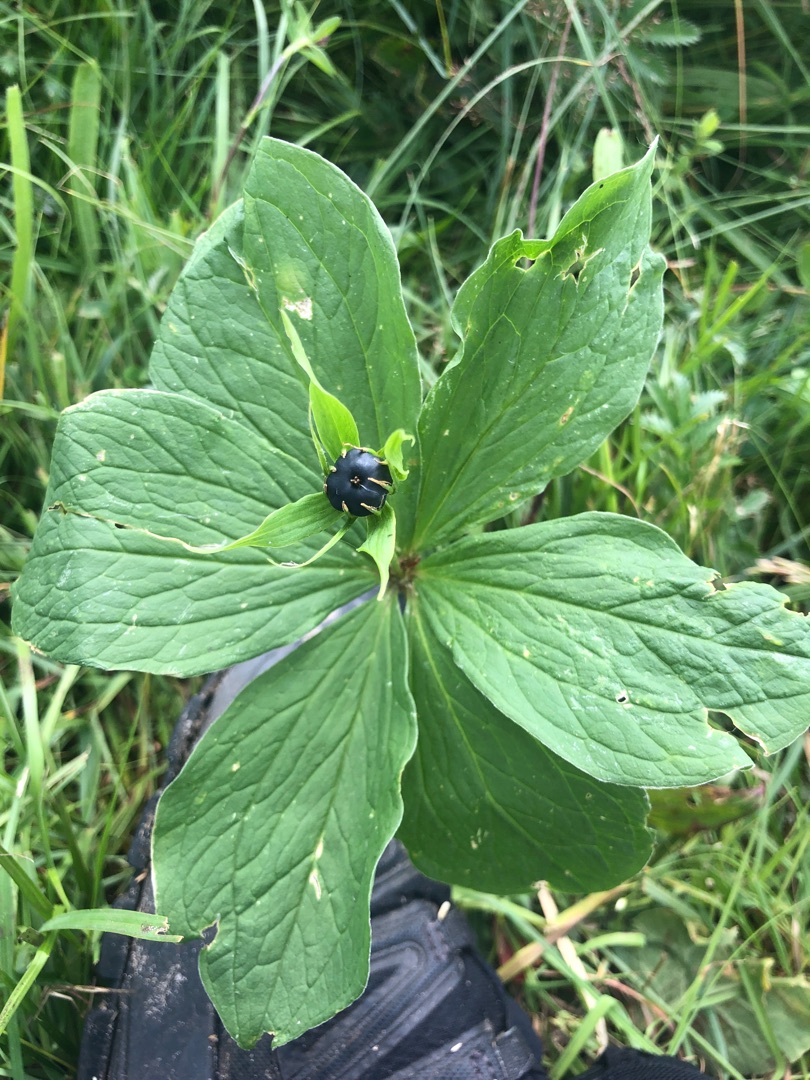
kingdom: Plantae
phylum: Tracheophyta
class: Liliopsida
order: Liliales
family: Melanthiaceae
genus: Paris
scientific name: Paris quadrifolia
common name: Firblad
